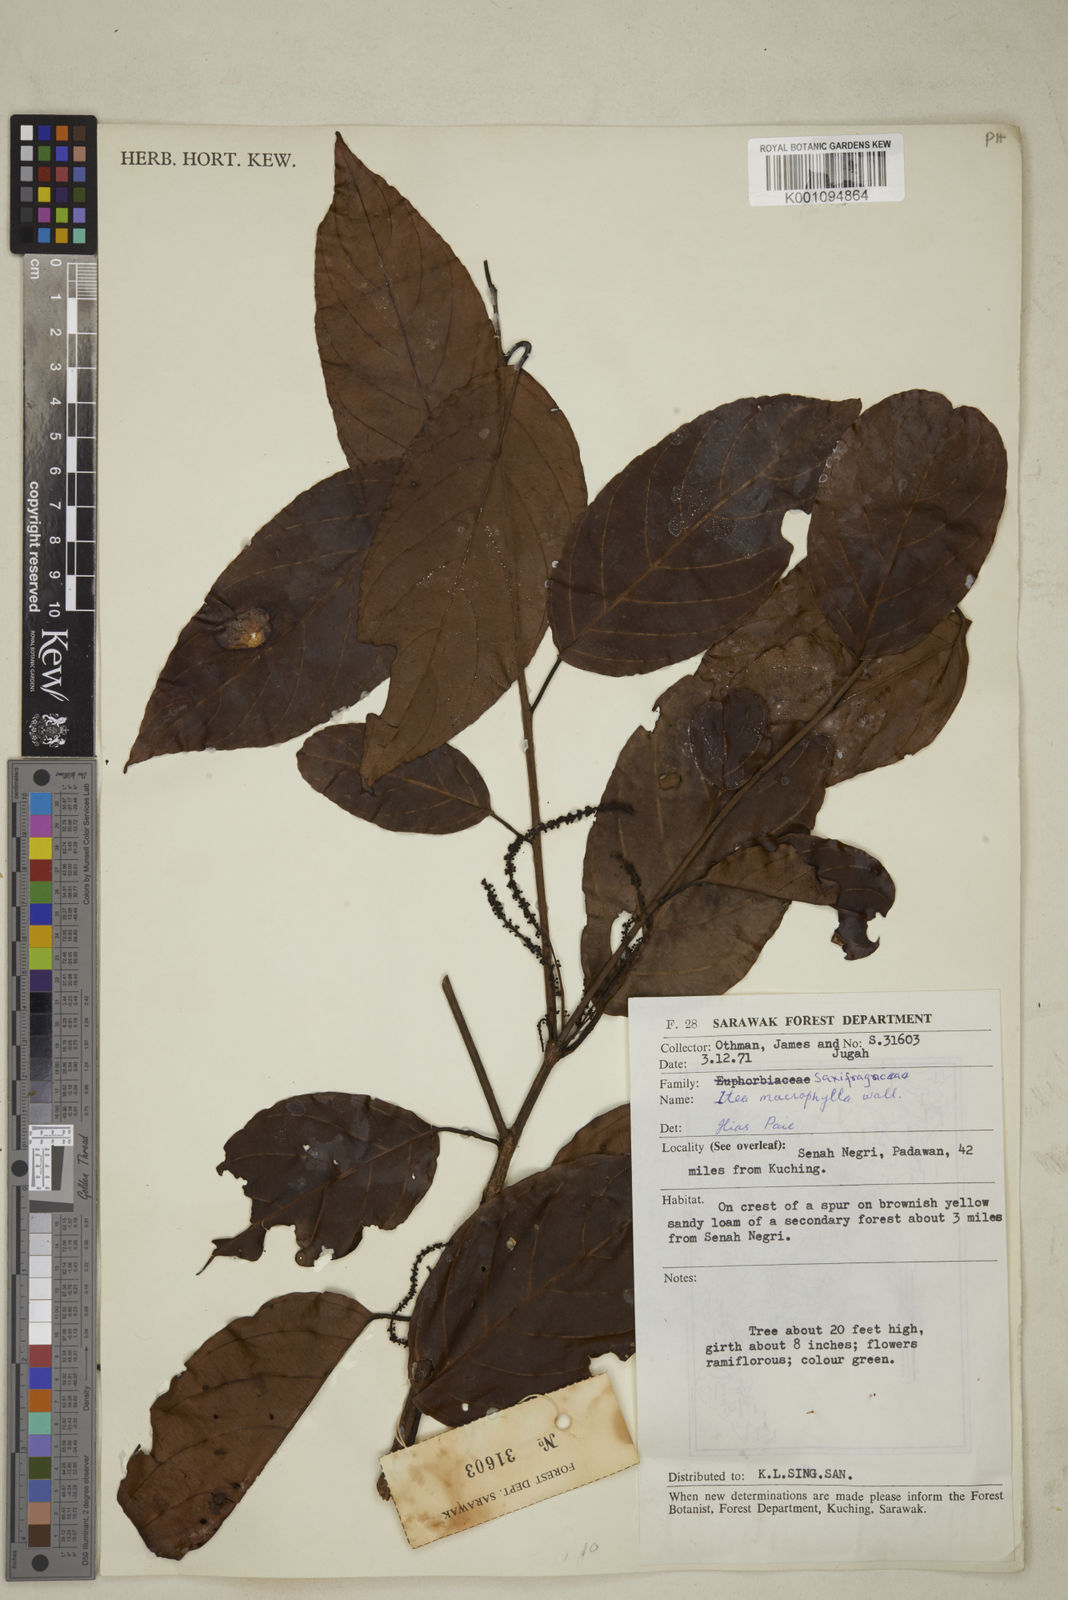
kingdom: Plantae
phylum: Tracheophyta
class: Magnoliopsida
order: Saxifragales
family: Iteaceae
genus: Itea
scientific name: Itea macrophylla
